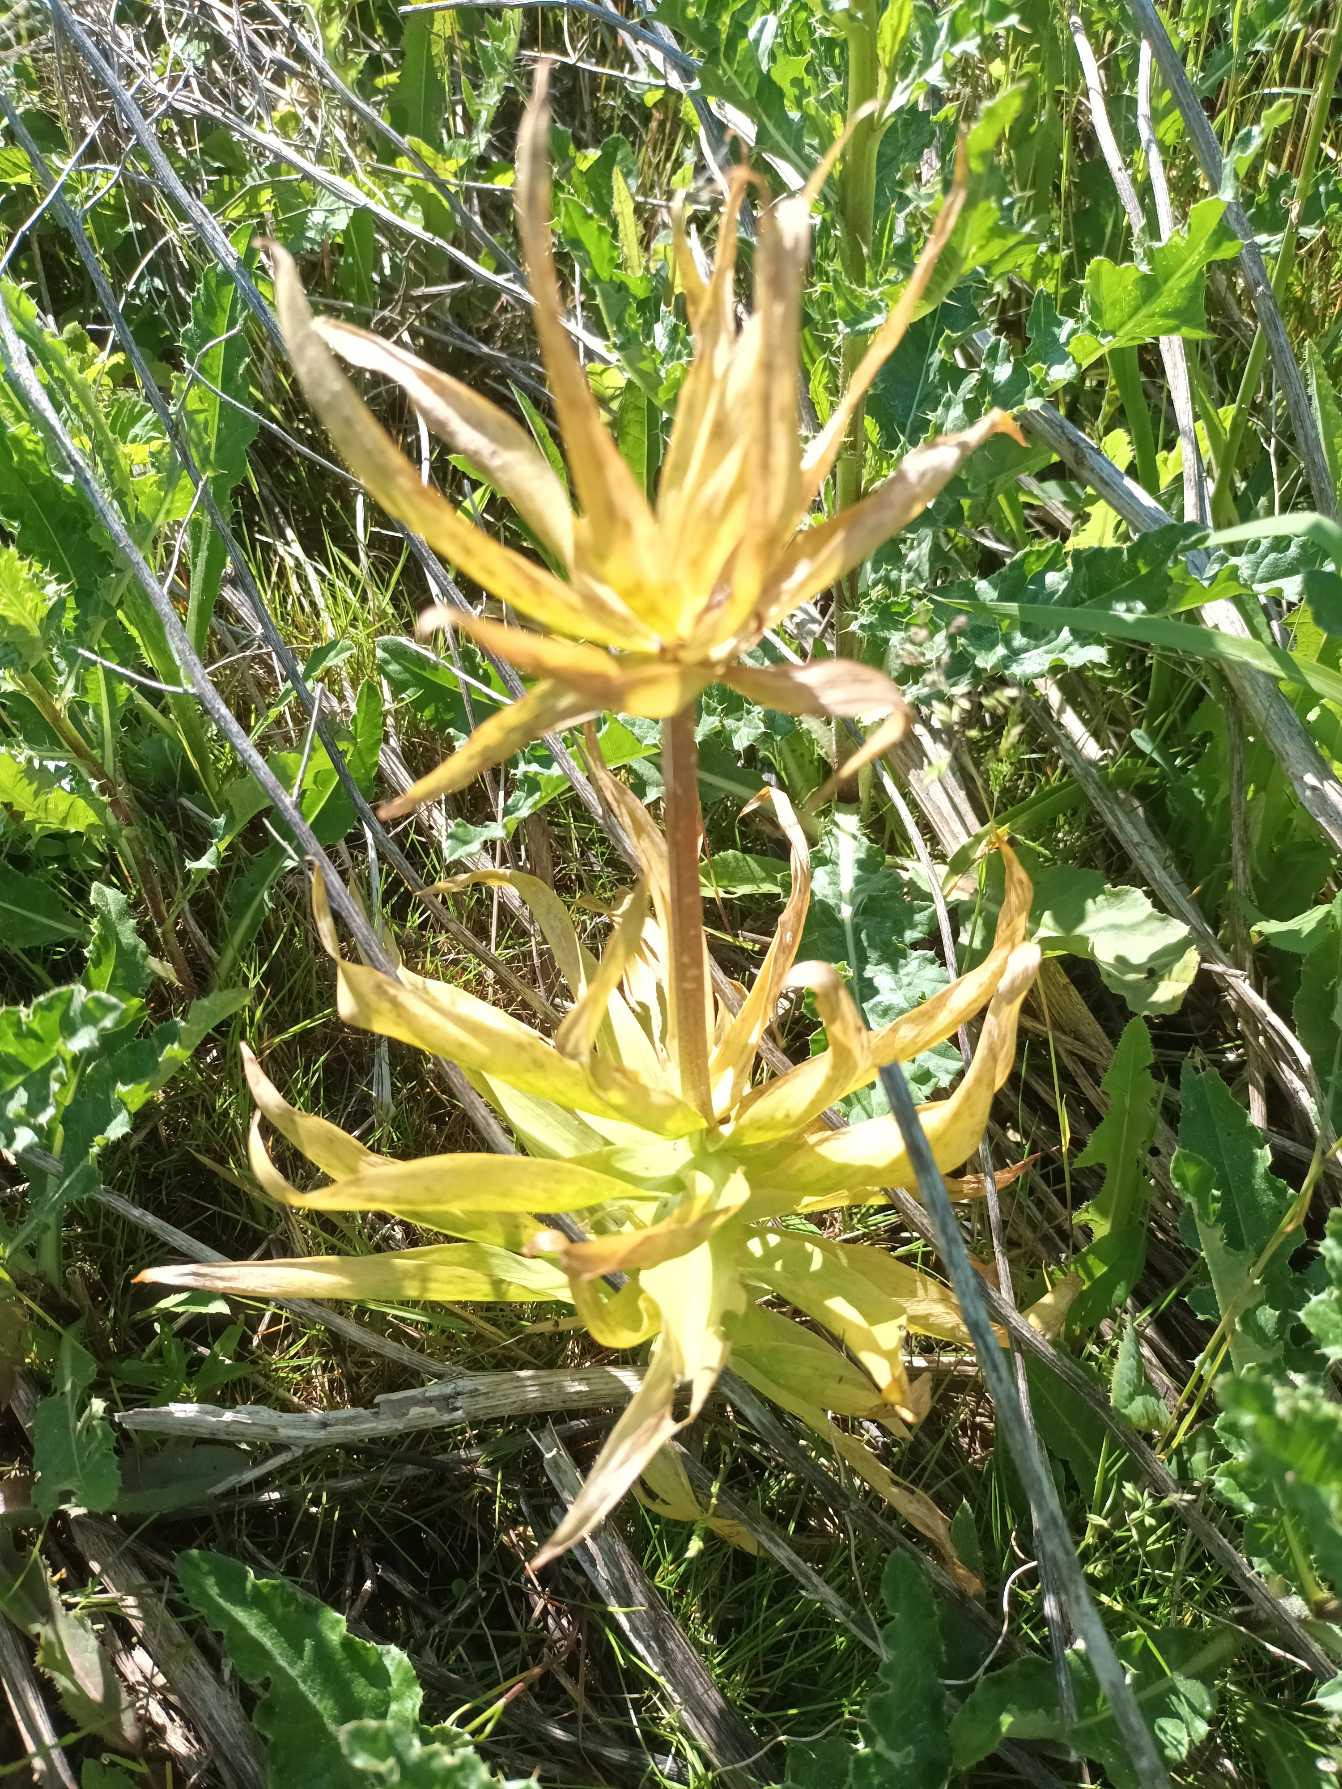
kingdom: Plantae
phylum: Tracheophyta
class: Liliopsida
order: Liliales
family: Liliaceae
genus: Fritillaria
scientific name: Fritillaria imperialis
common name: Kejserkrone
